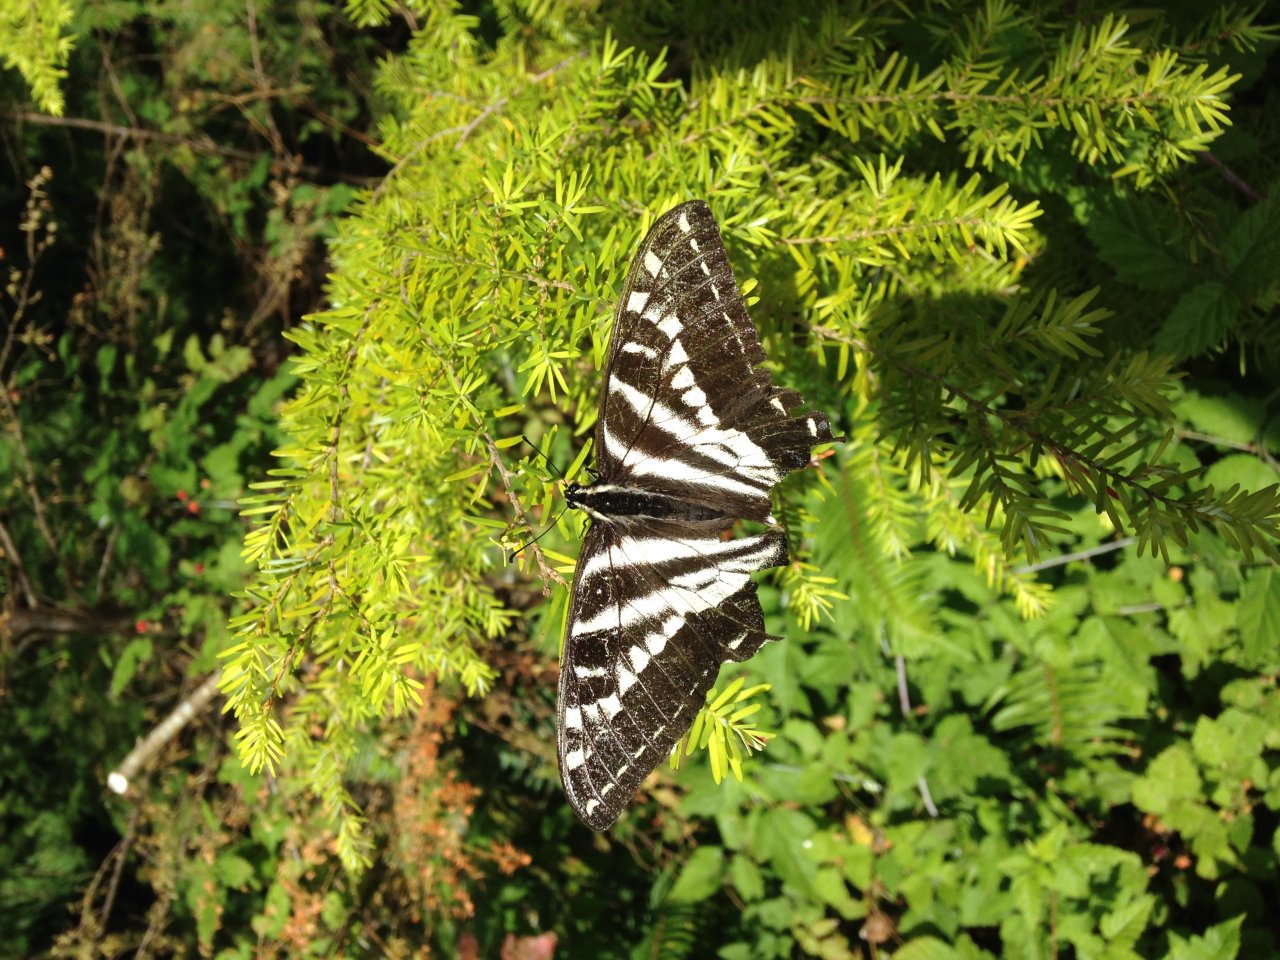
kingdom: Animalia
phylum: Arthropoda
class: Insecta
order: Lepidoptera
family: Papilionidae
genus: Pterourus
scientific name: Pterourus eurymedon
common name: Pale Swallowtail
